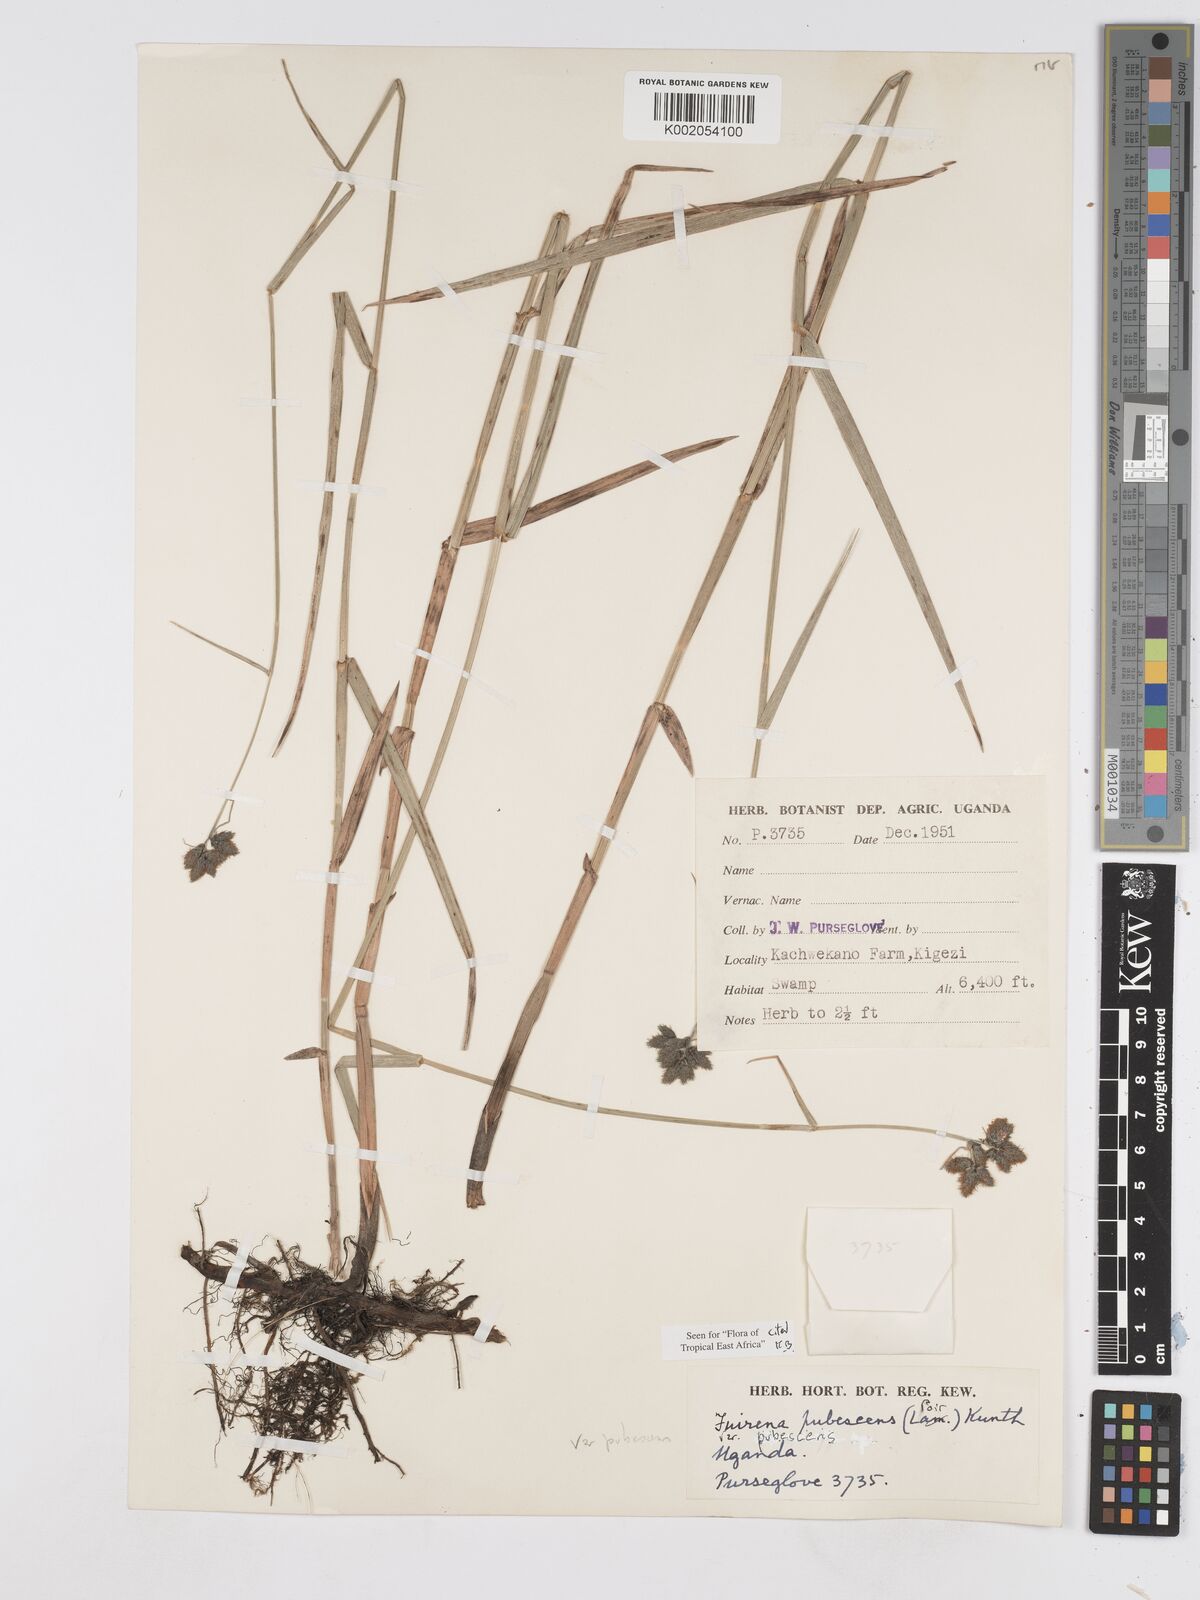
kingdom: Plantae
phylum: Tracheophyta
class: Liliopsida
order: Poales
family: Cyperaceae
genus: Fuirena
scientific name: Fuirena pubescens
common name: Hairy sedge
